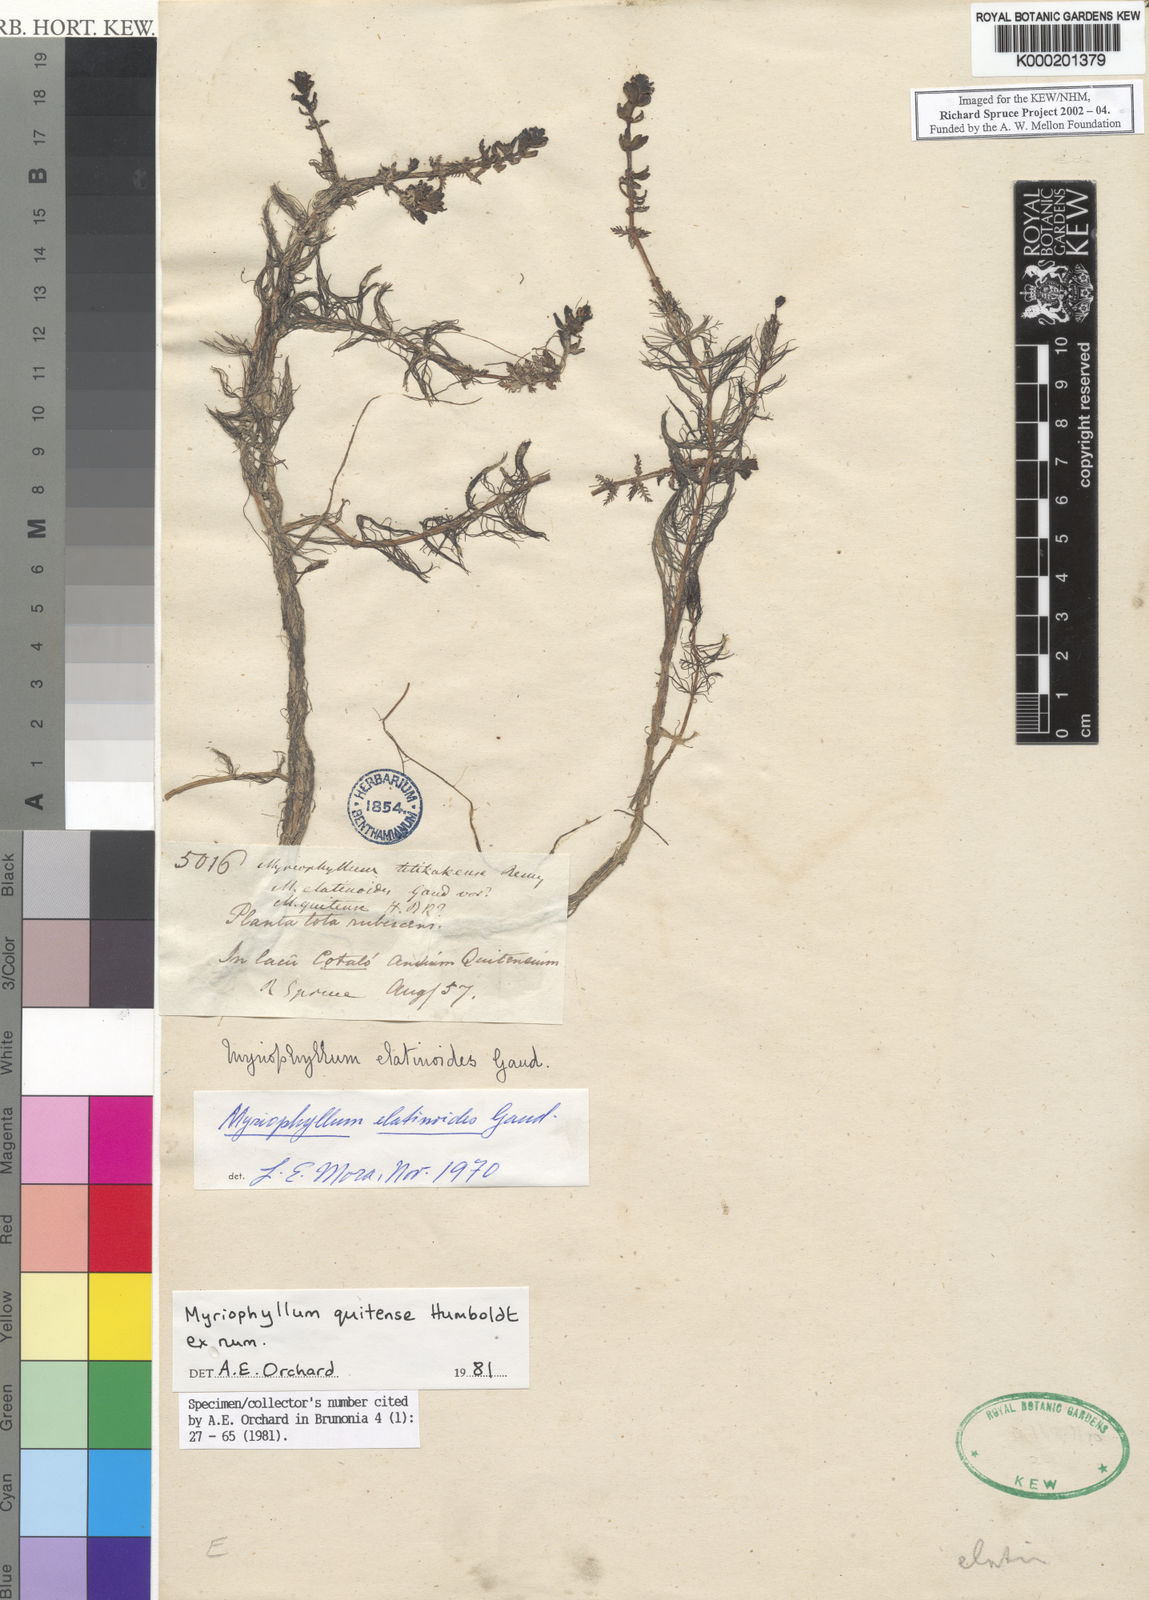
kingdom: Plantae
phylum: Tracheophyta
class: Magnoliopsida
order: Saxifragales
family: Haloragaceae
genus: Myriophyllum
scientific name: Myriophyllum quitense
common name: Andean water milfoil
